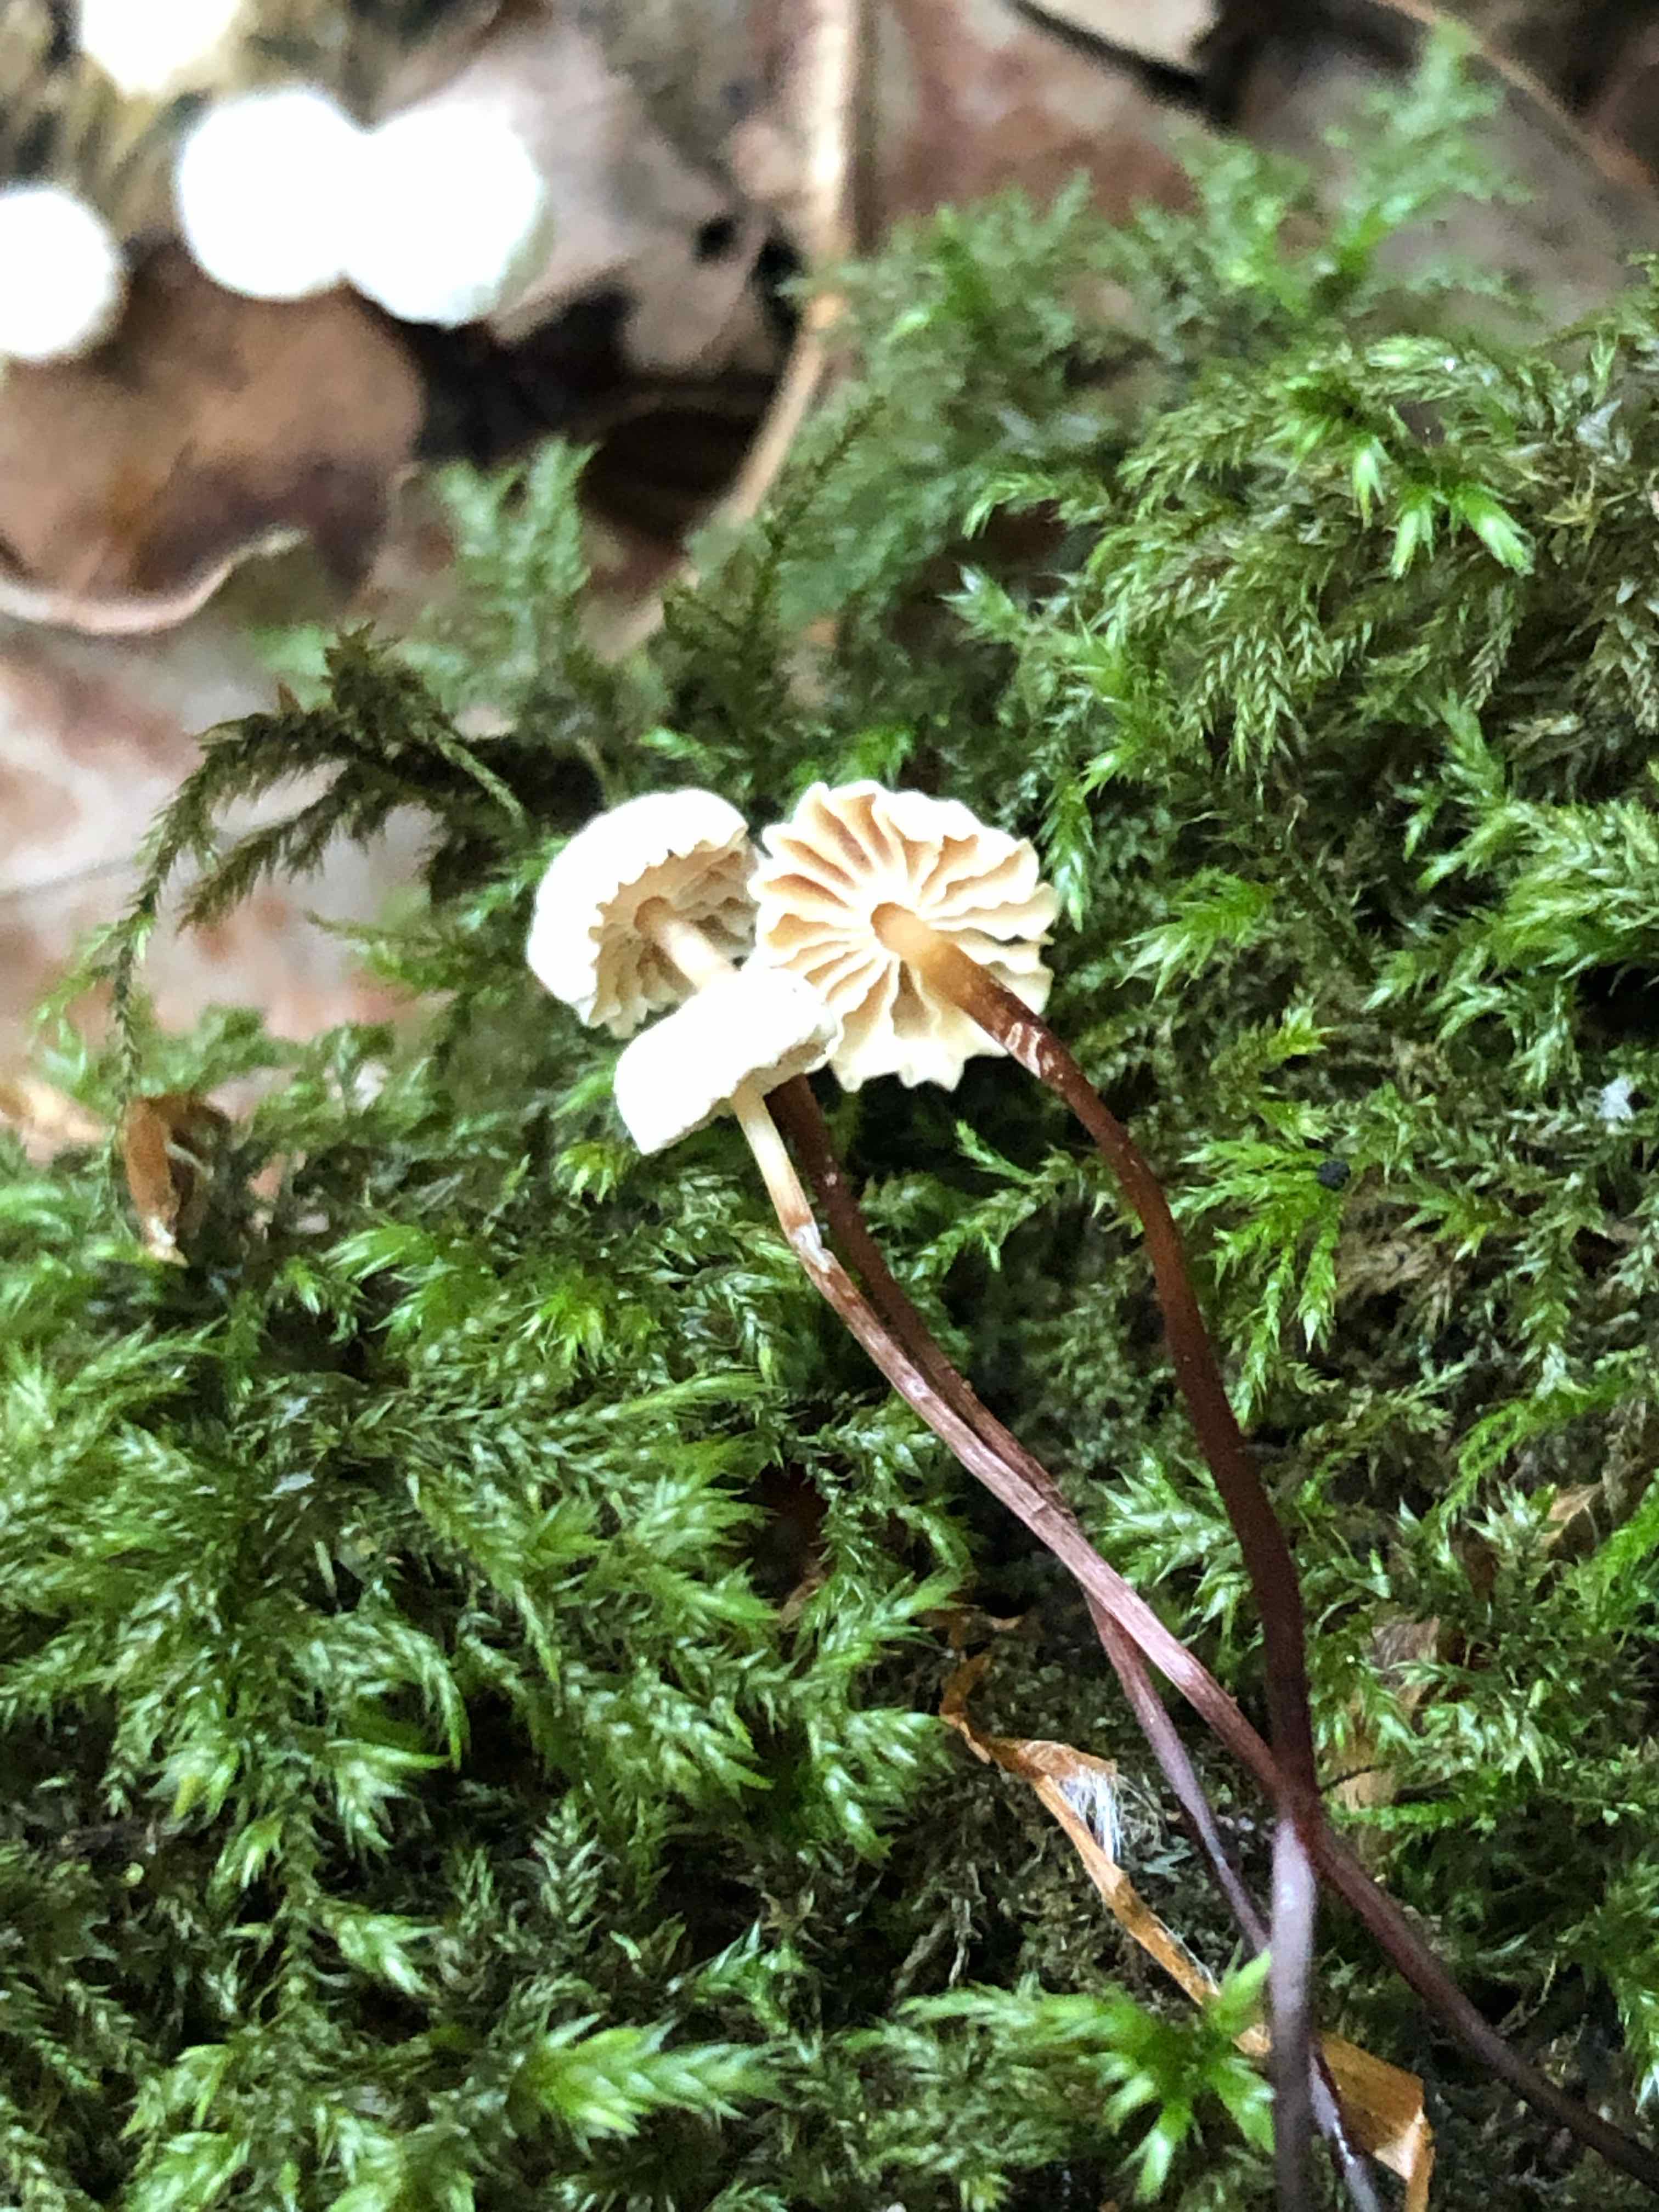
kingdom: Fungi
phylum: Basidiomycota
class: Agaricomycetes
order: Agaricales
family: Marasmiaceae
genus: Marasmius
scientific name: Marasmius rotula
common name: hjul-bruskhat
